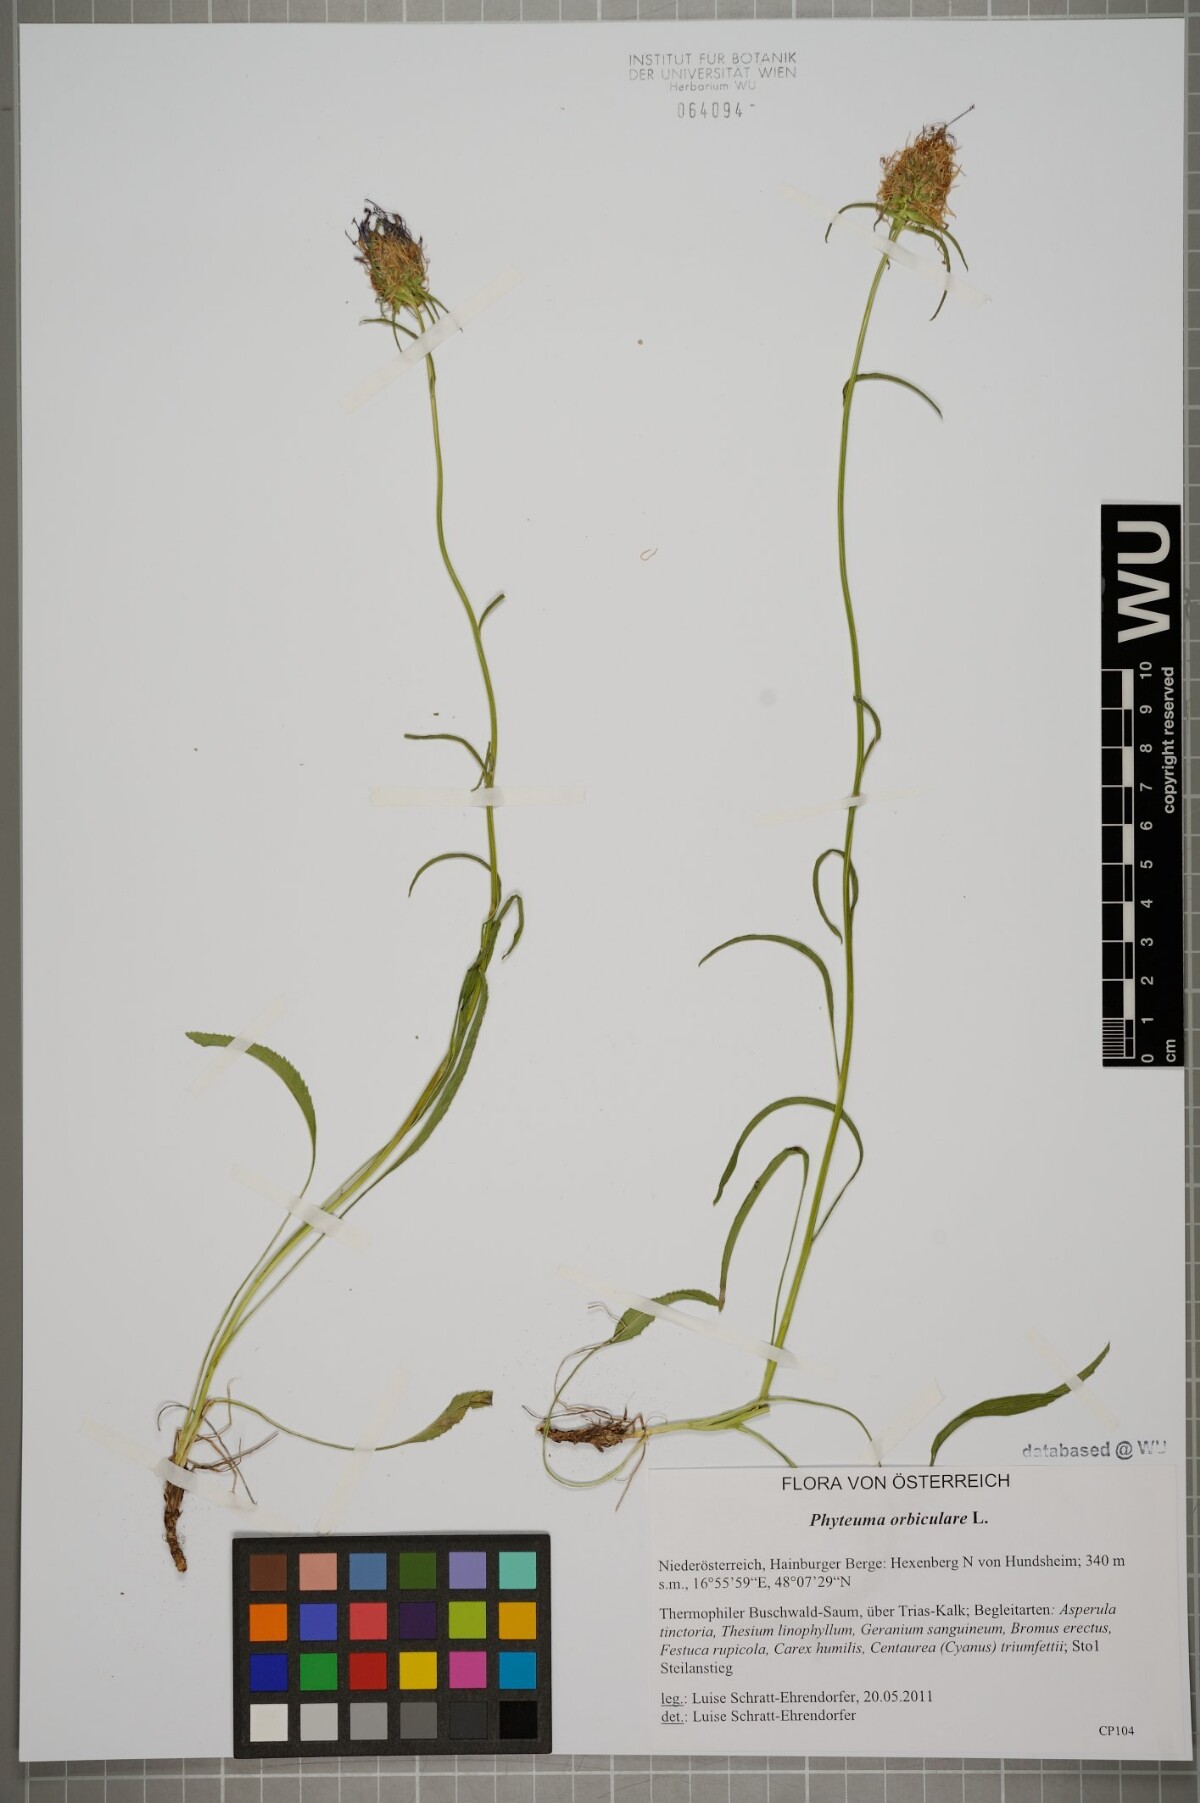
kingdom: Plantae
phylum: Tracheophyta
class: Magnoliopsida
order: Asterales
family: Campanulaceae
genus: Phyteuma
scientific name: Phyteuma orbiculare
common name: Round-headed rampion
